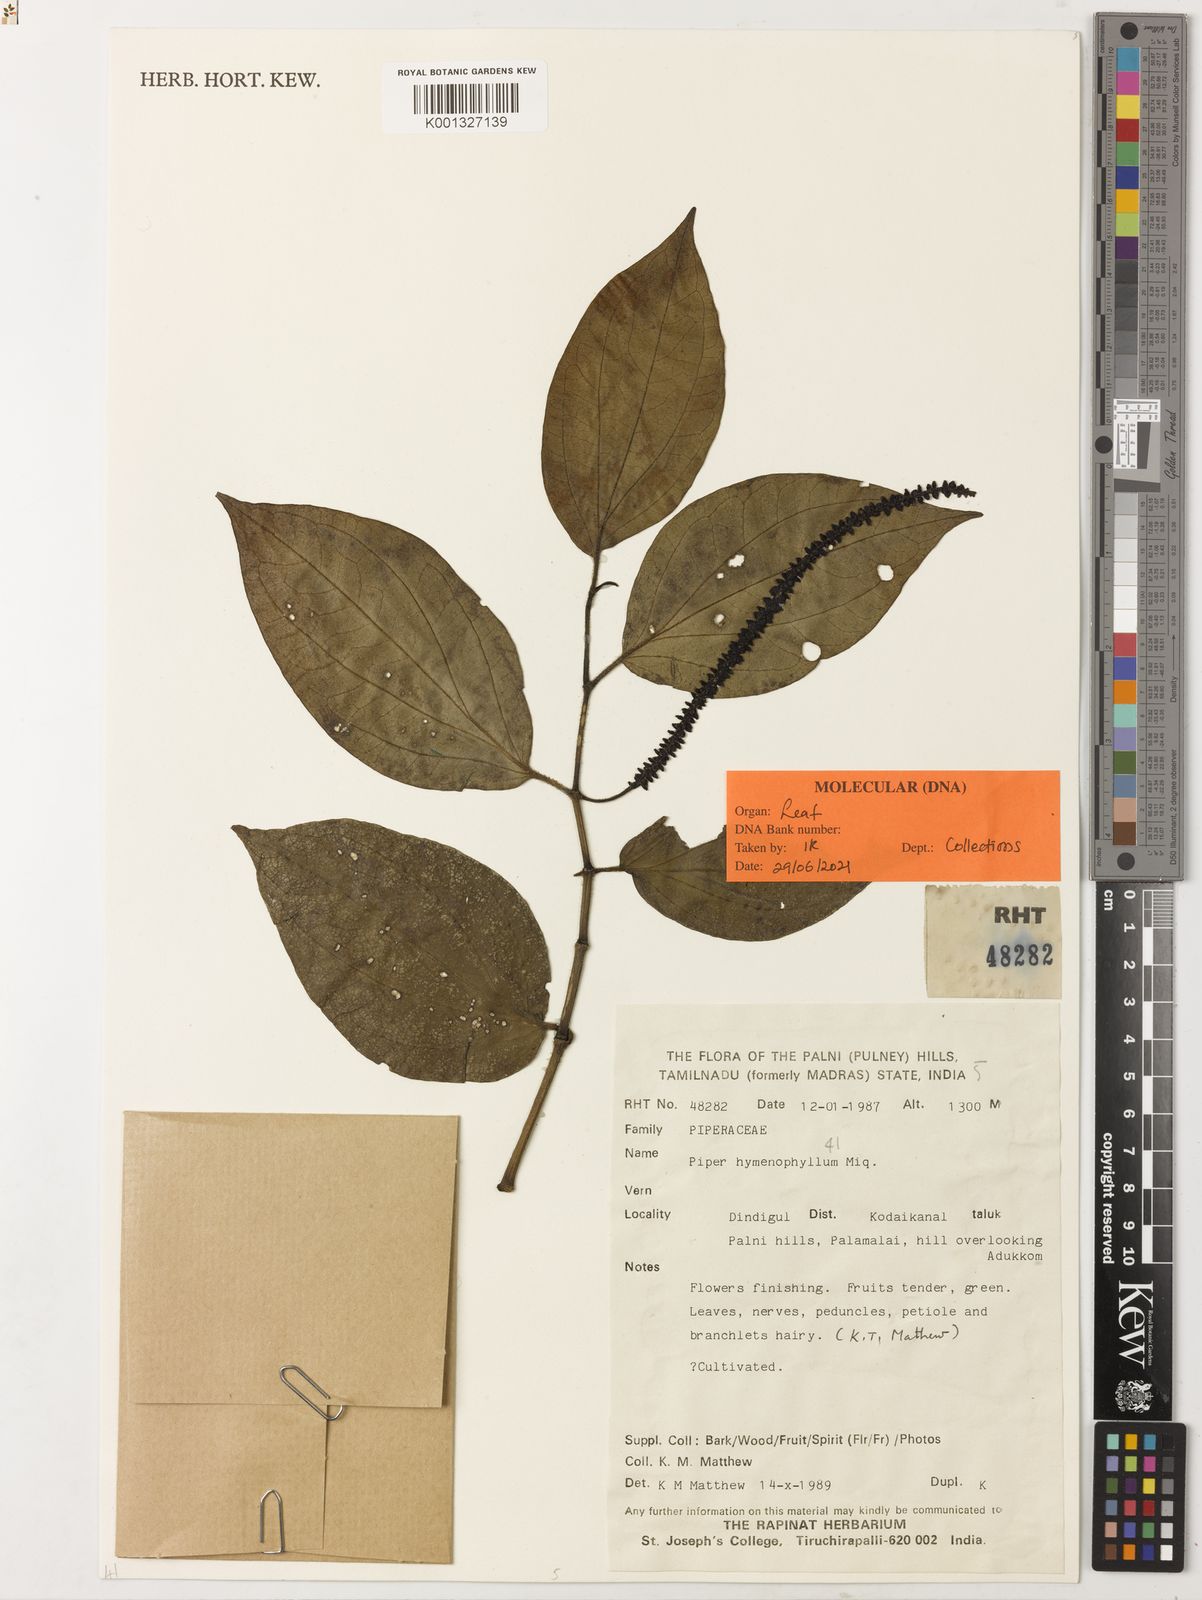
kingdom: Plantae
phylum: Tracheophyta
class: Magnoliopsida
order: Piperales
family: Piperaceae
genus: Piper
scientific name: Piper hymenophyllum
